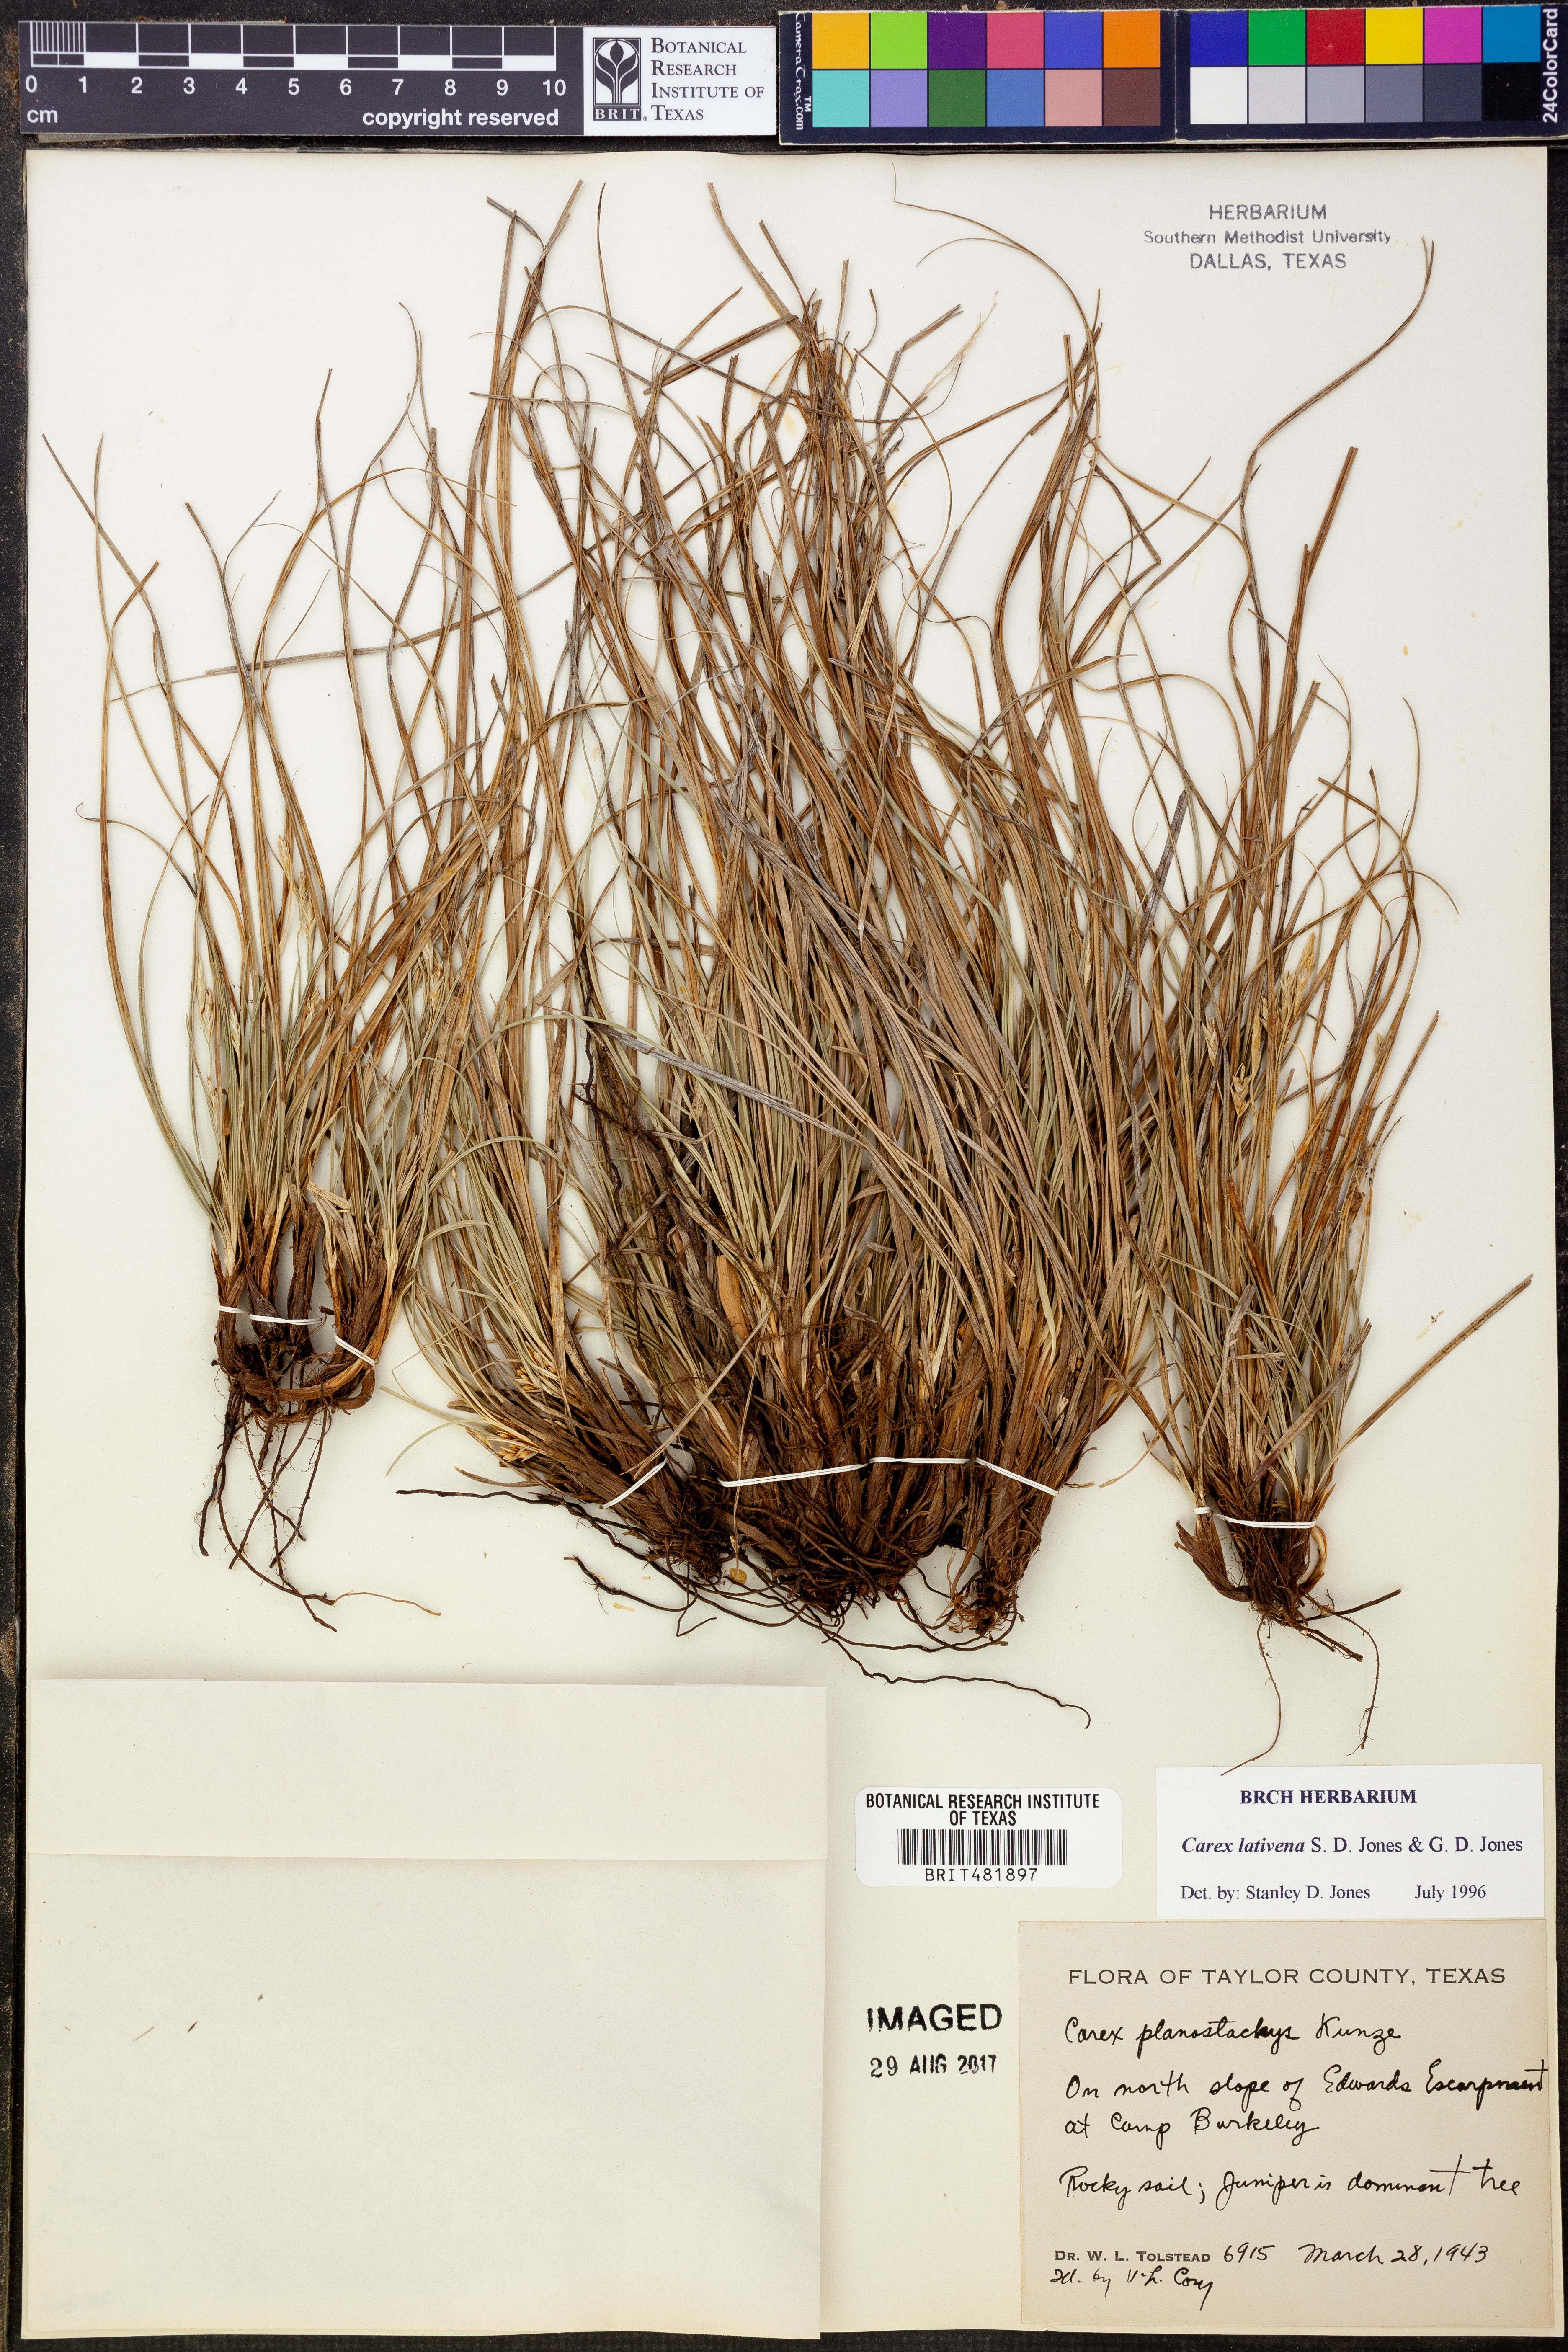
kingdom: Plantae
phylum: Tracheophyta
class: Liliopsida
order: Poales
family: Cyperaceae
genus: Carex
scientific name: Carex lativena
